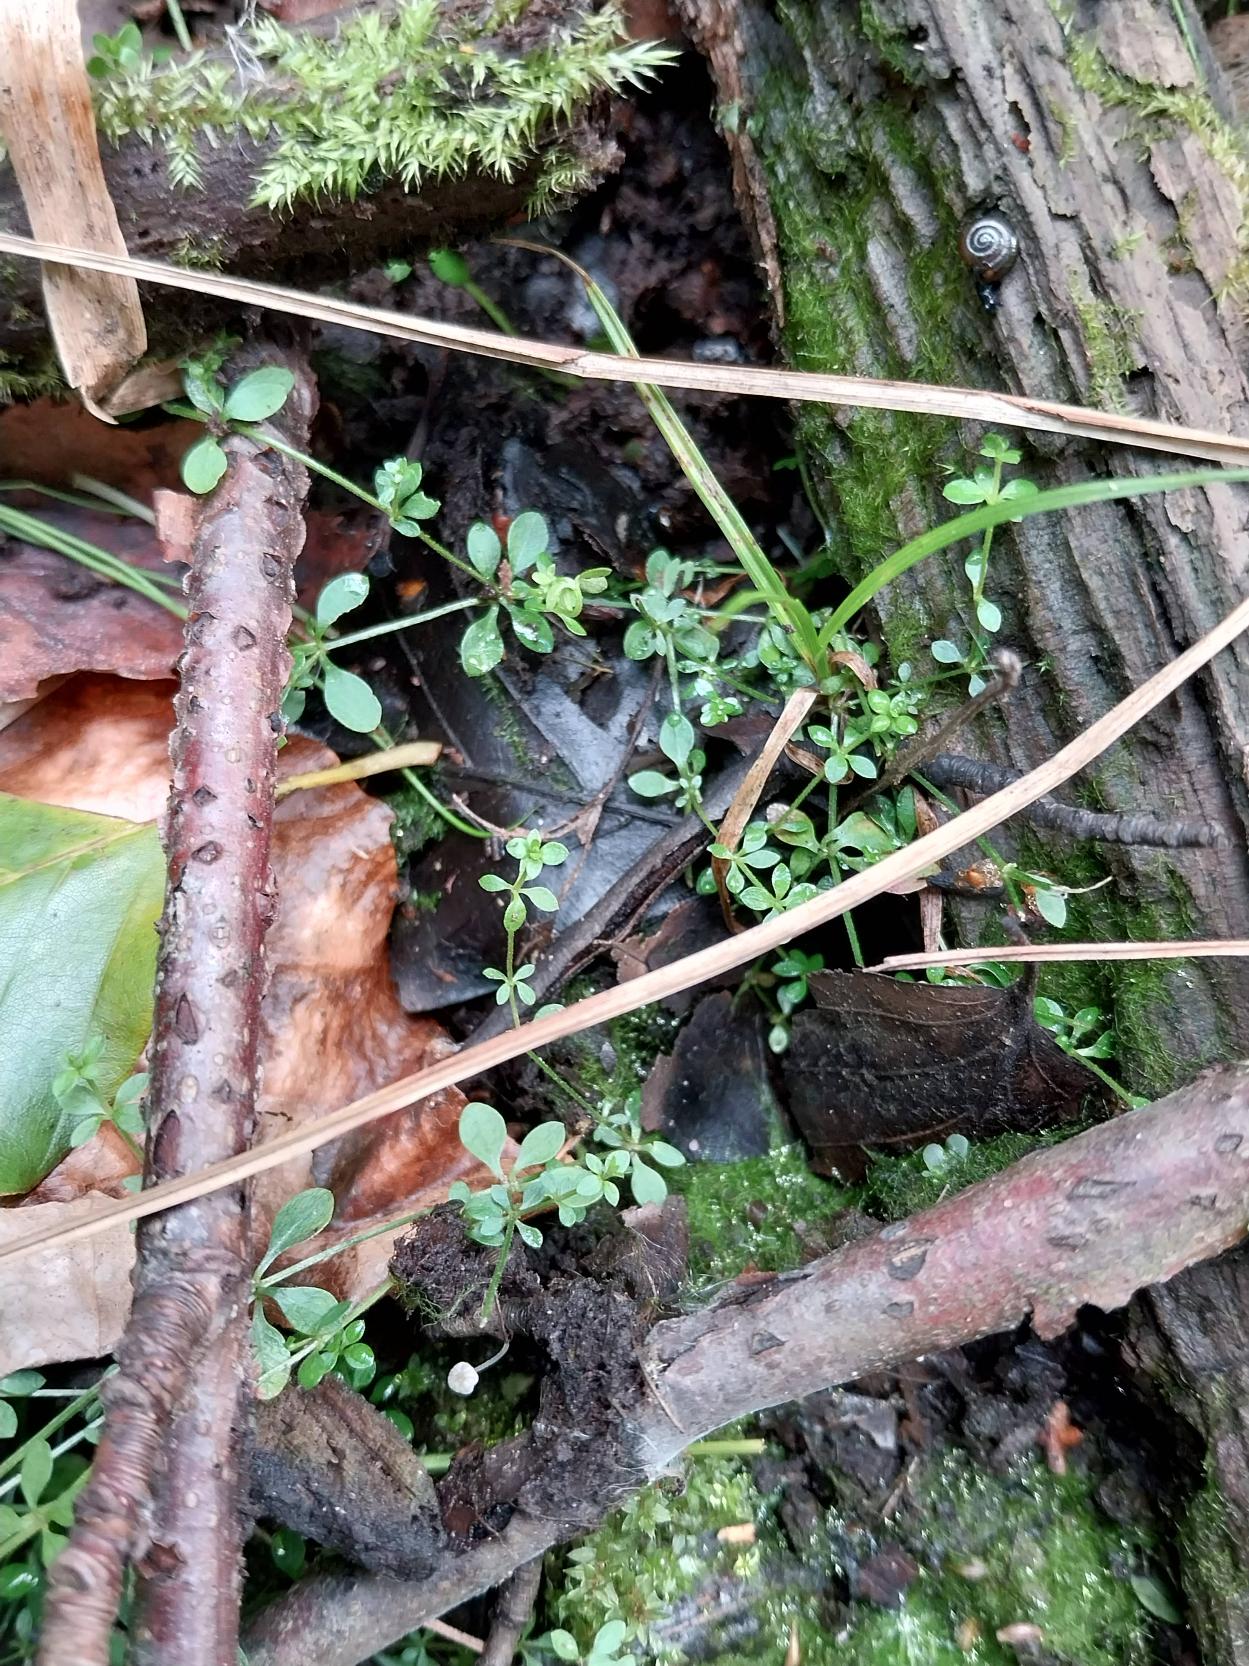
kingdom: Plantae
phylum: Tracheophyta
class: Magnoliopsida
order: Gentianales
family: Rubiaceae
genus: Galium
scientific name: Galium palustre
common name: Kær-snerre
